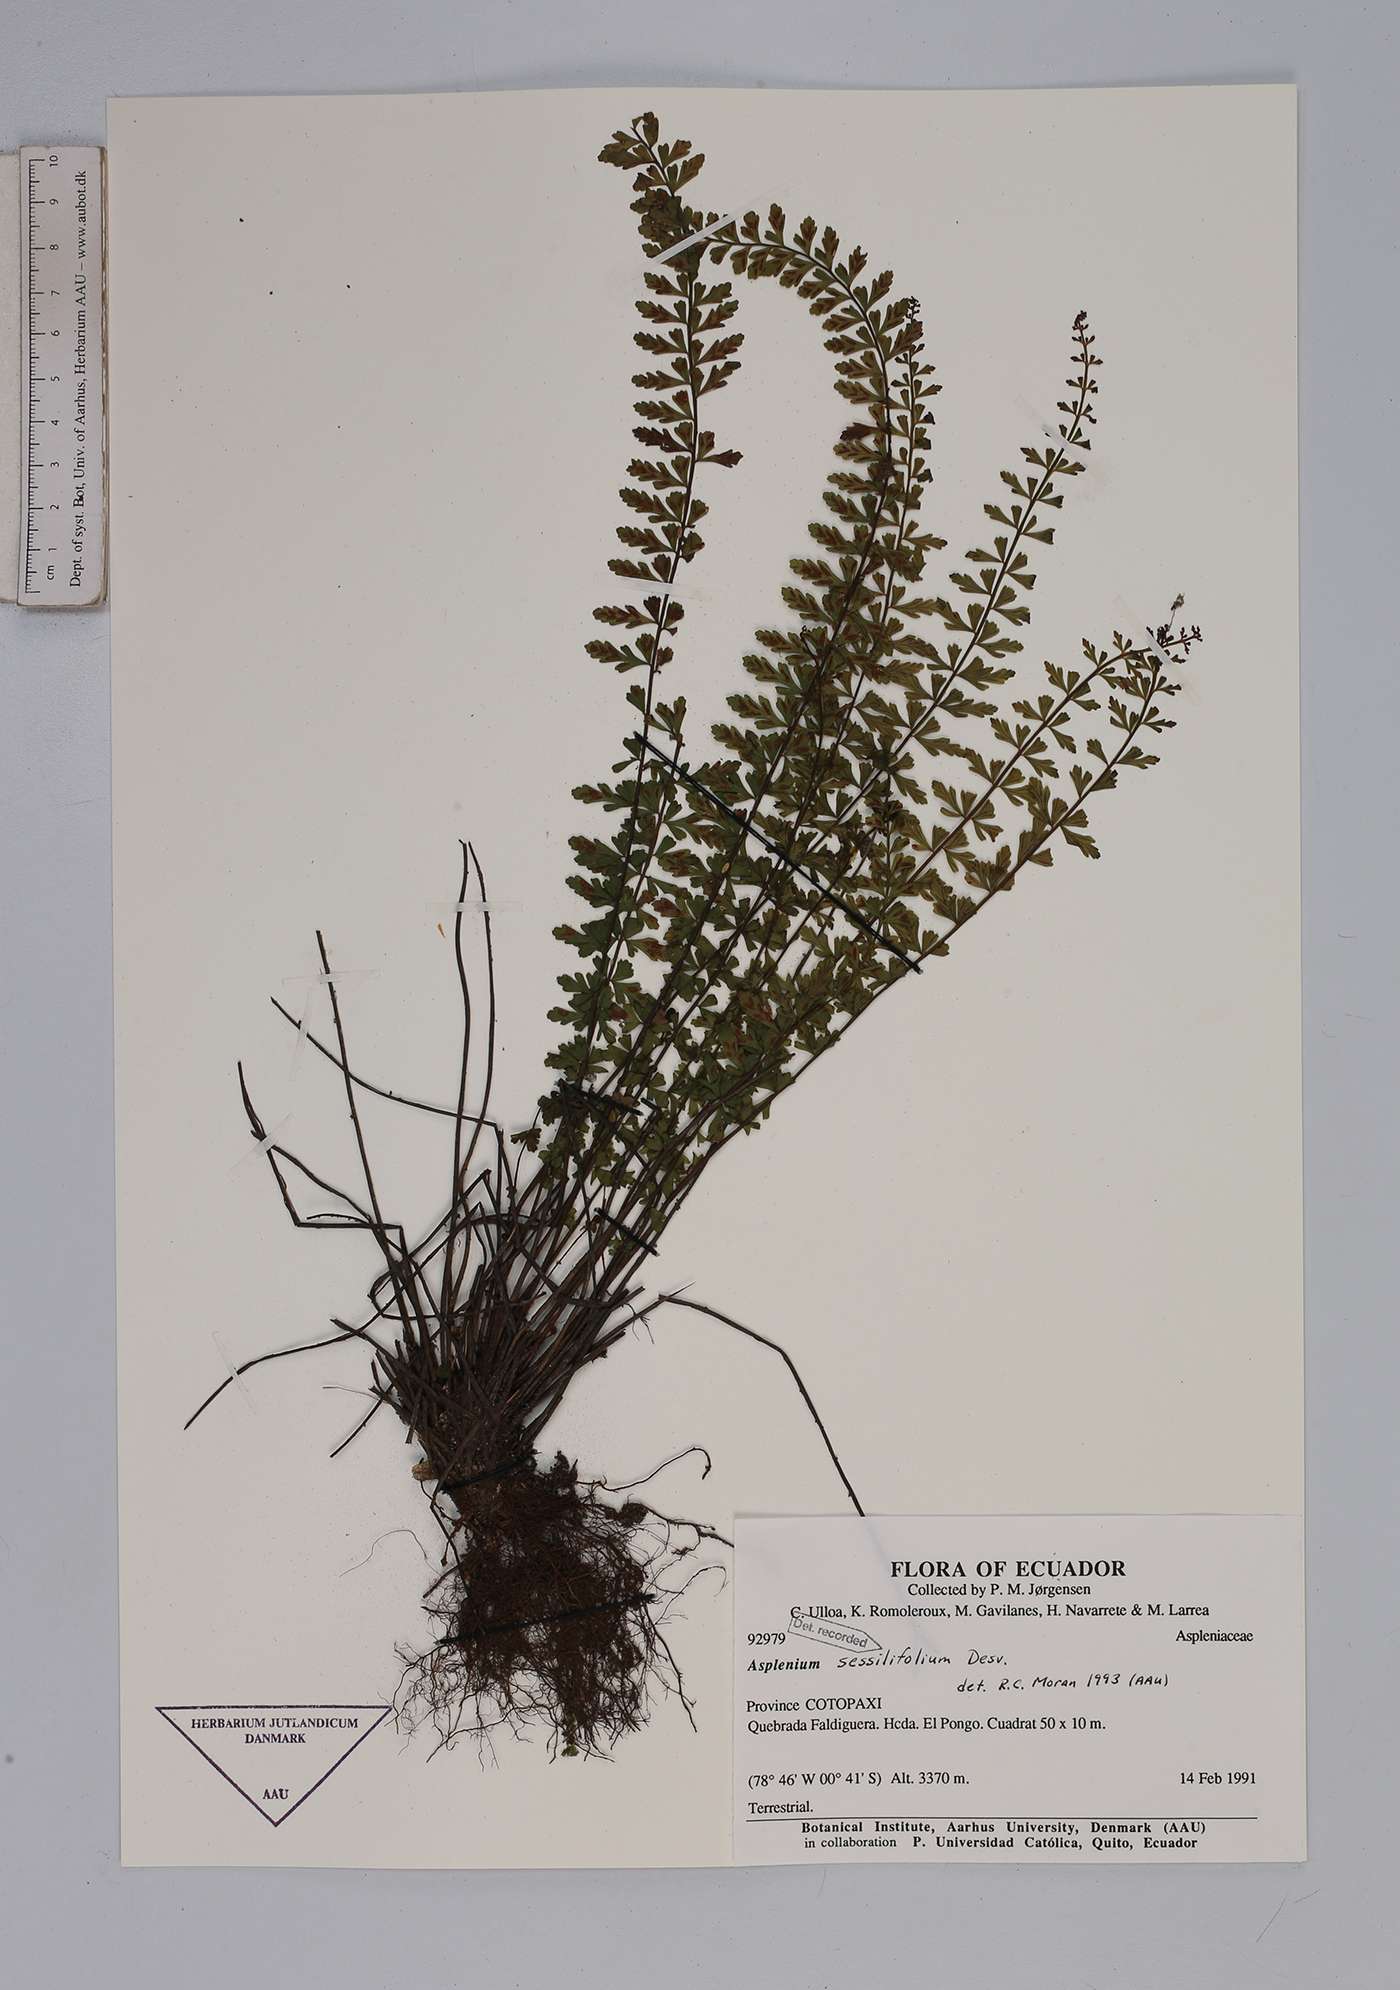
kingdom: Plantae
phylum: Tracheophyta
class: Polypodiopsida
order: Polypodiales
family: Aspleniaceae
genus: Asplenium
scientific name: Asplenium sessilifolium
